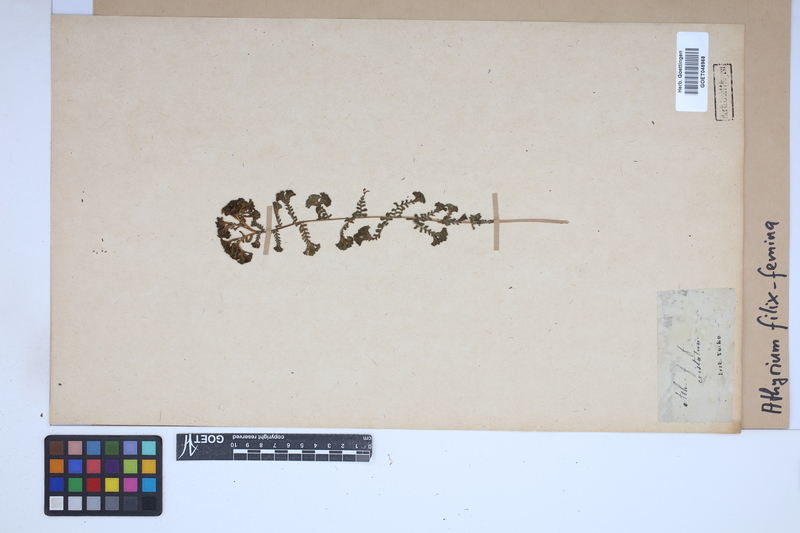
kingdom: Plantae
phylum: Tracheophyta
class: Polypodiopsida
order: Polypodiales
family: Athyriaceae
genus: Athyrium
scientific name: Athyrium filix-femina
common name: Lady fern
